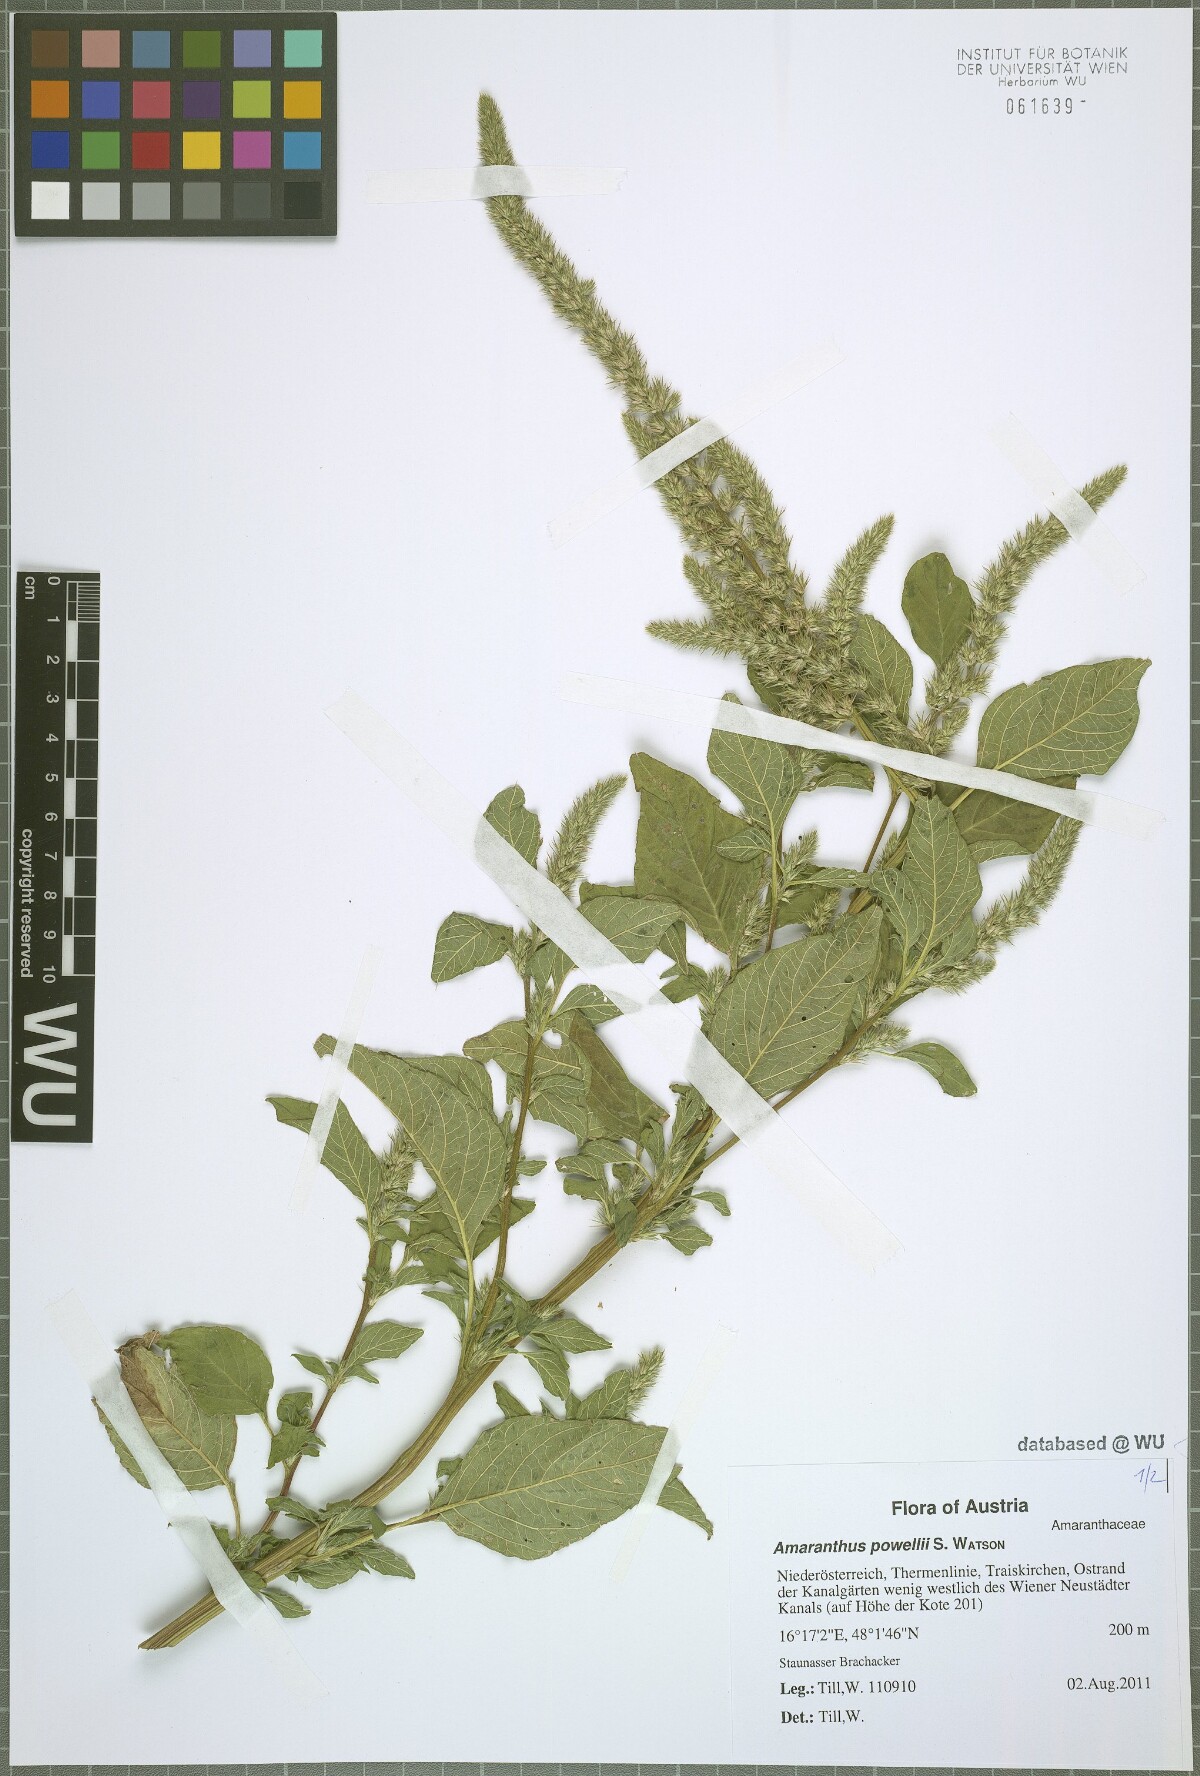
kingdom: Plantae
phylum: Tracheophyta
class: Magnoliopsida
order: Caryophyllales
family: Amaranthaceae
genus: Amaranthus
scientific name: Amaranthus powellii
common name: Powell's amaranth
